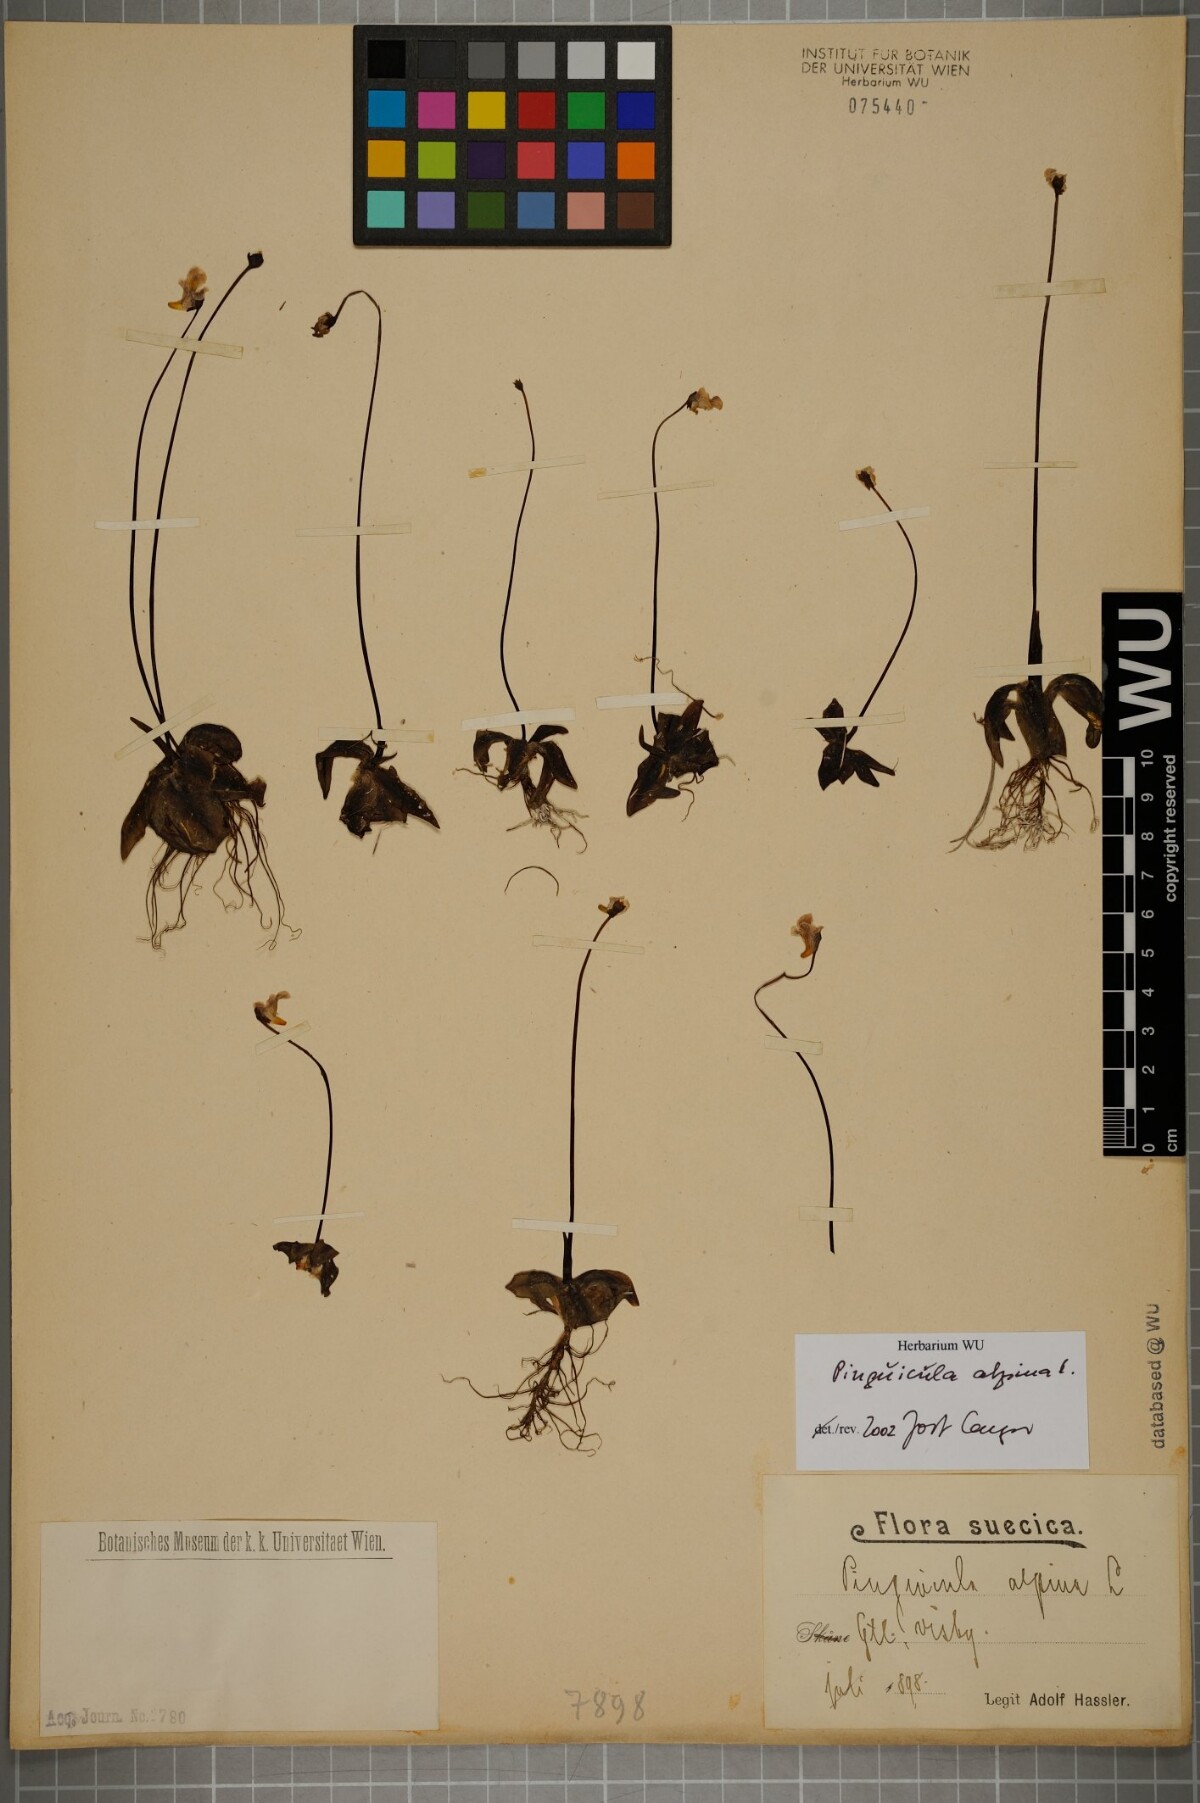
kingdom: Plantae
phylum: Tracheophyta
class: Magnoliopsida
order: Lamiales
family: Lentibulariaceae
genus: Pinguicula
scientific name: Pinguicula alpina
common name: Alpine butterwort
